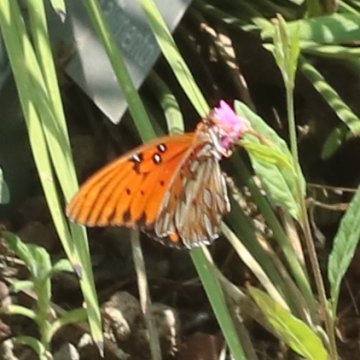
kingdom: Animalia
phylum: Arthropoda
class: Insecta
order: Lepidoptera
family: Nymphalidae
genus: Dione
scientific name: Dione vanillae
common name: Gulf Fritillary
